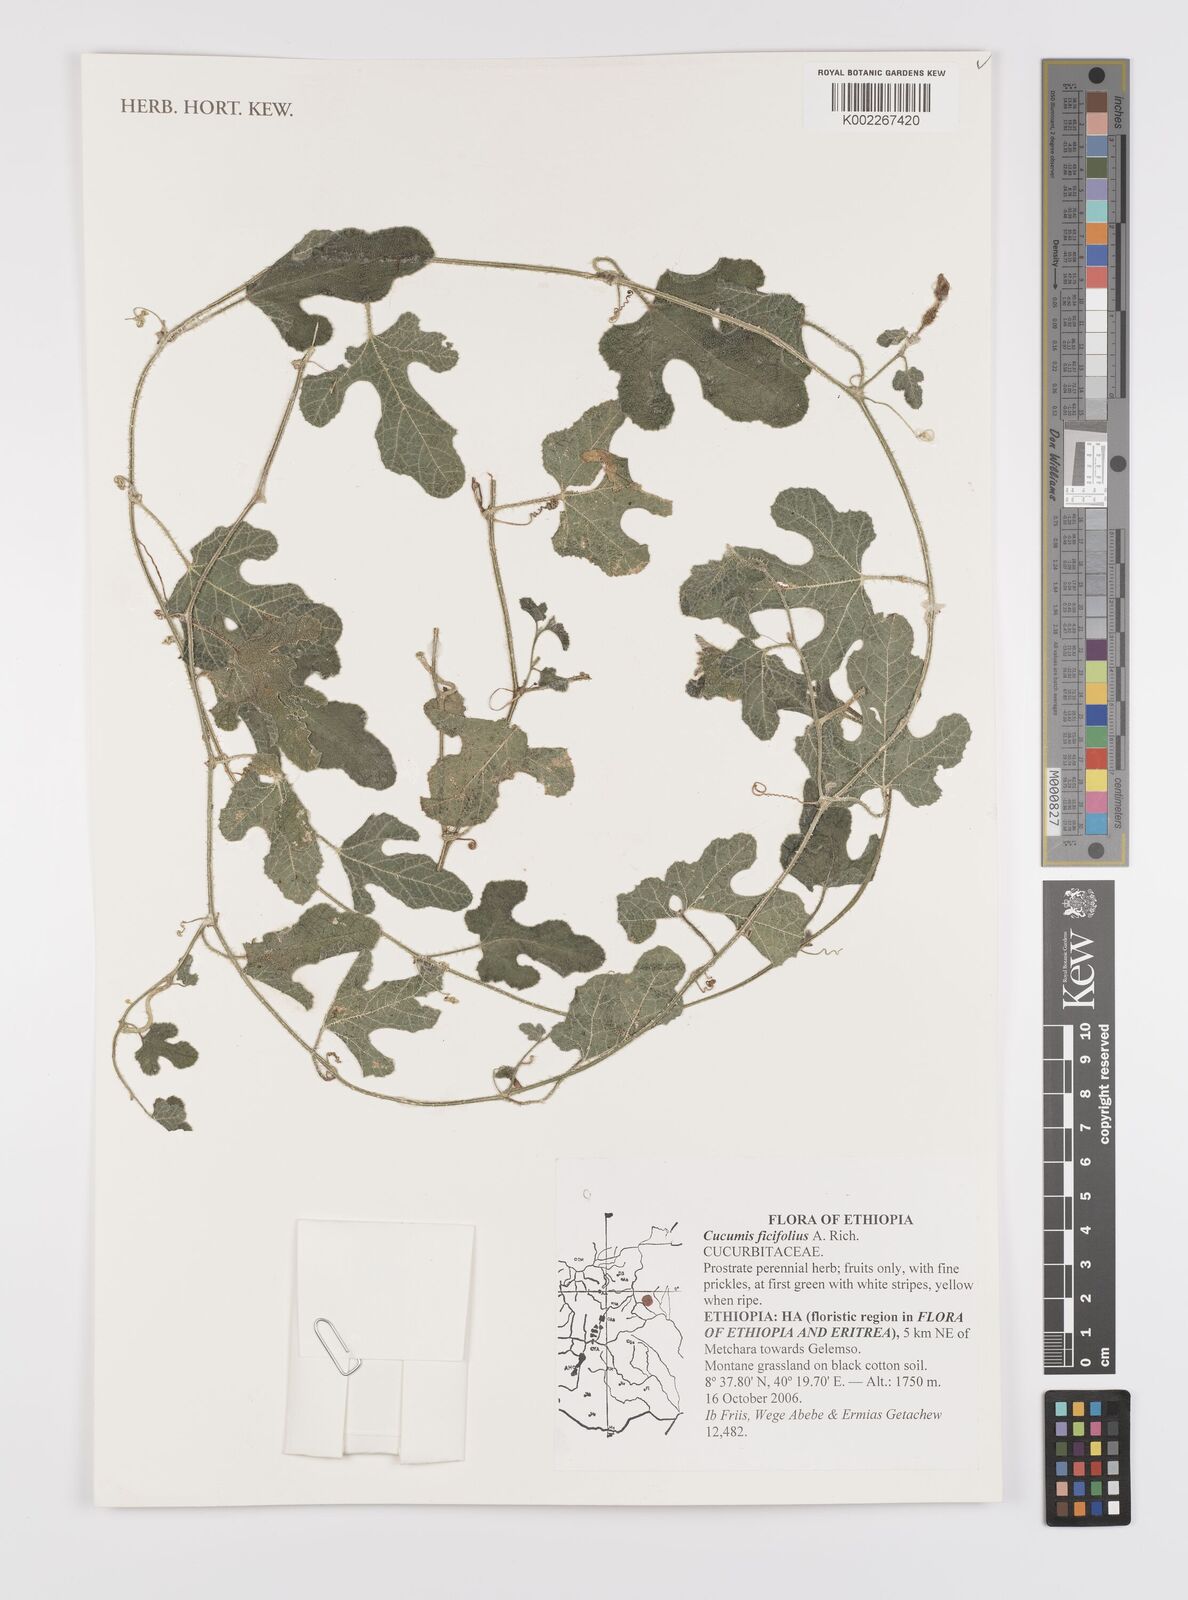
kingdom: Plantae
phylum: Tracheophyta
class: Magnoliopsida
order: Cucurbitales
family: Cucurbitaceae
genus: Cucumis
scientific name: Cucumis ficifolius
